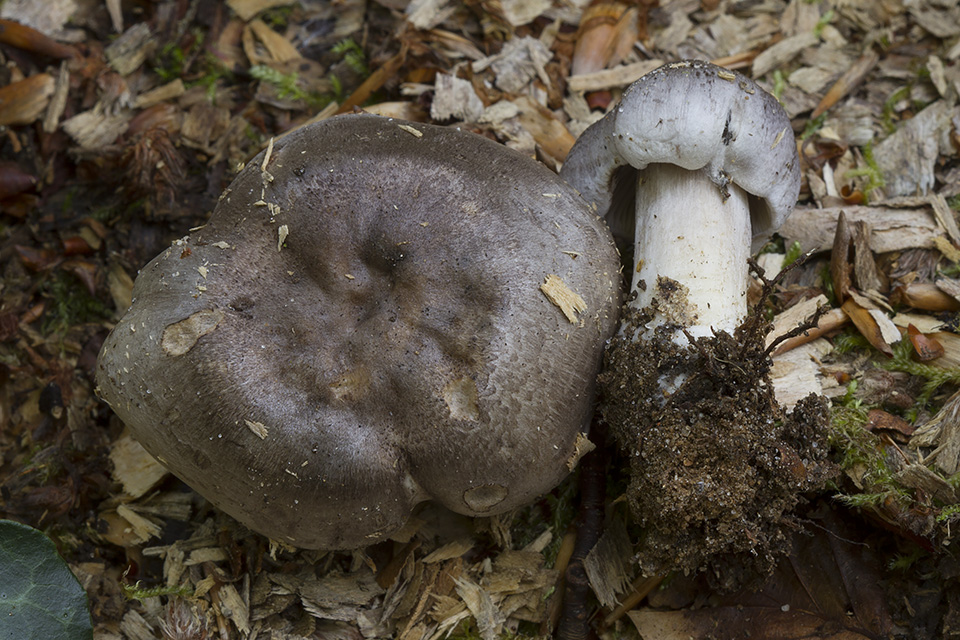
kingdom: Fungi
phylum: Basidiomycota
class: Agaricomycetes
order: Agaricales
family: Tricholomataceae
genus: Tricholoma
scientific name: Tricholoma sciodes
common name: stribet ridderhat
